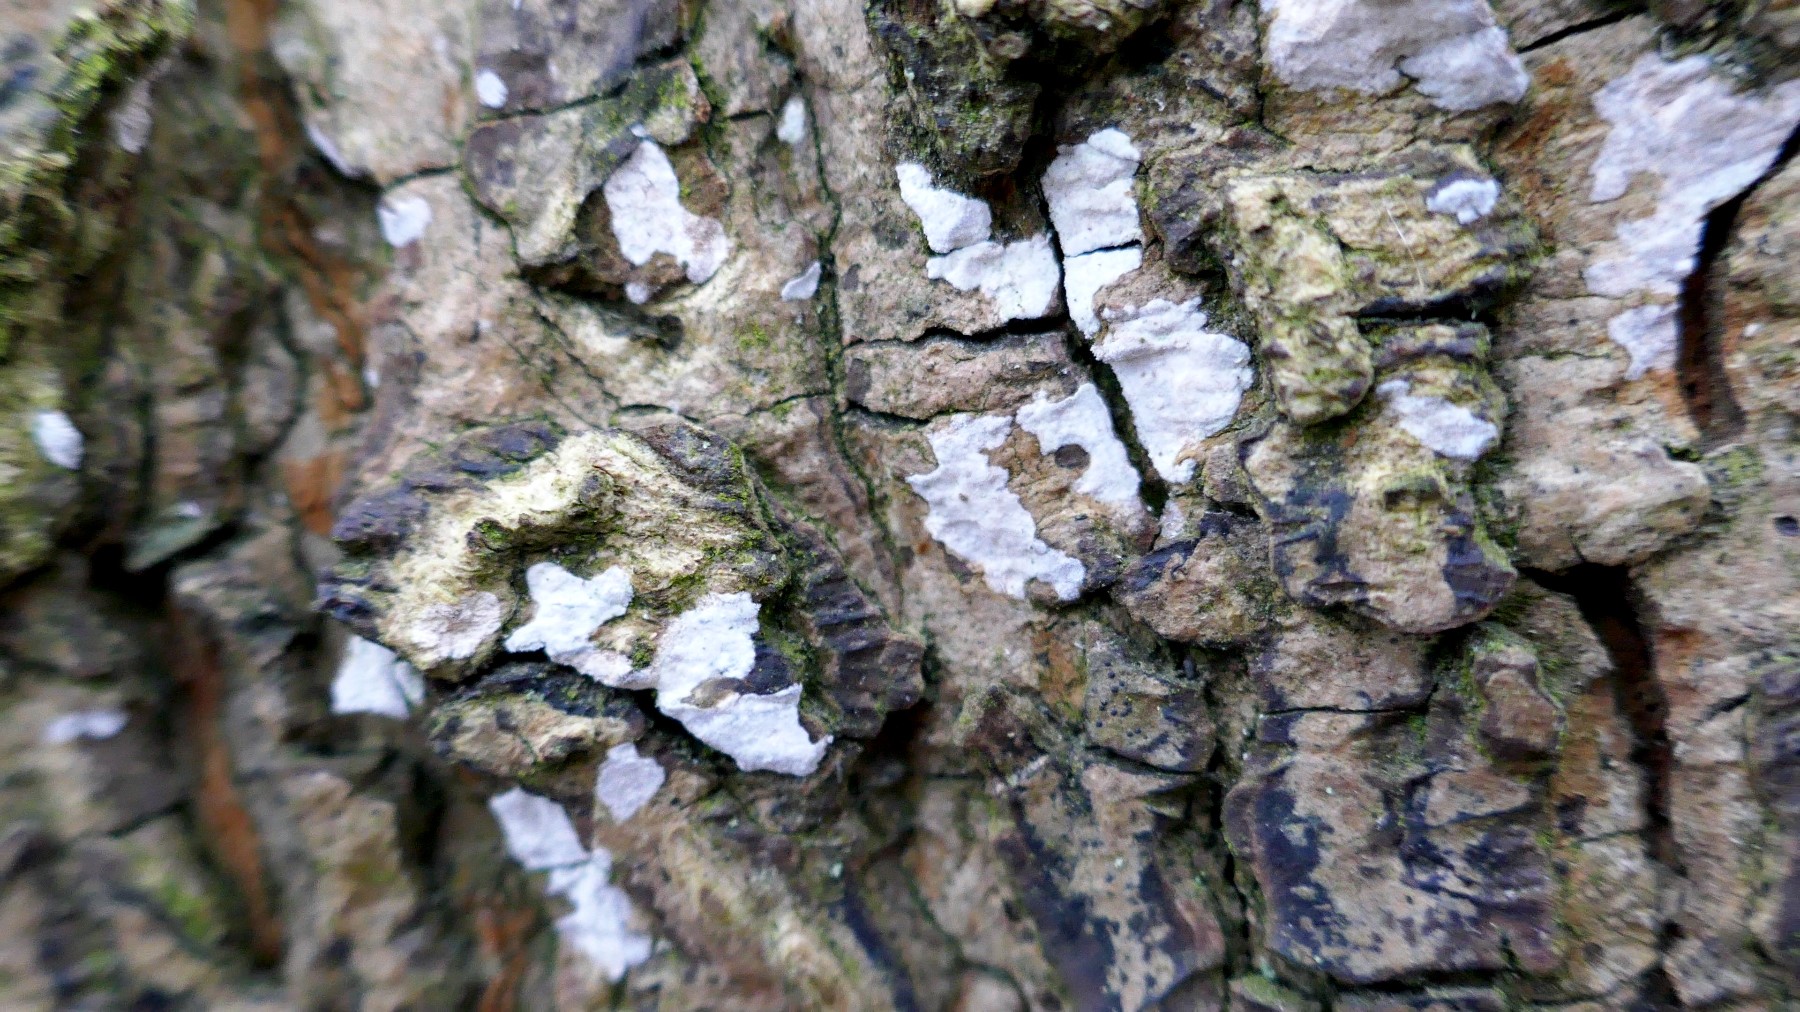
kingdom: Fungi
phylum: Basidiomycota
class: Agaricomycetes
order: Agaricales
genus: Dendrothele
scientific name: Dendrothele acerina
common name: navr-kalkplet
